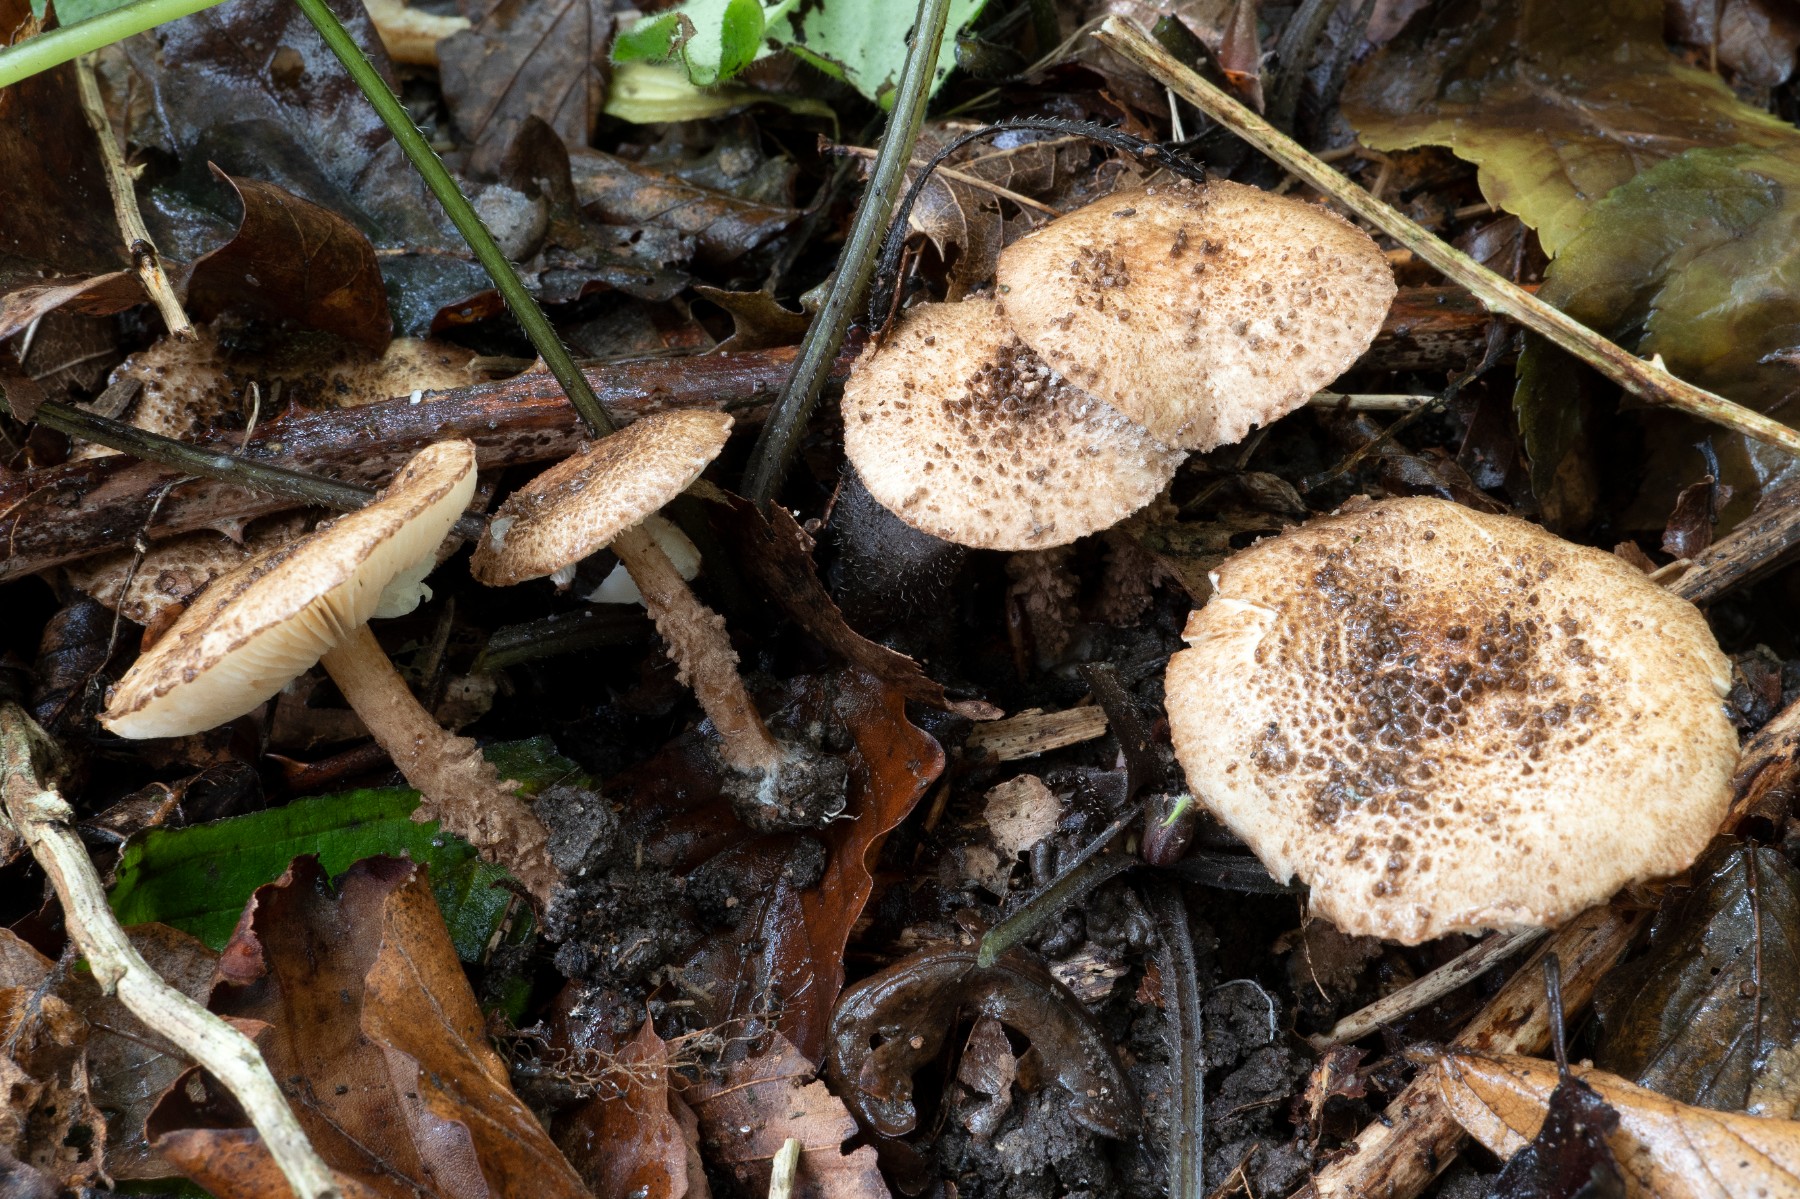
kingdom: Fungi
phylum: Basidiomycota
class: Agaricomycetes
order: Agaricales
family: Agaricaceae
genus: Echinoderma
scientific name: Echinoderma jacobi
